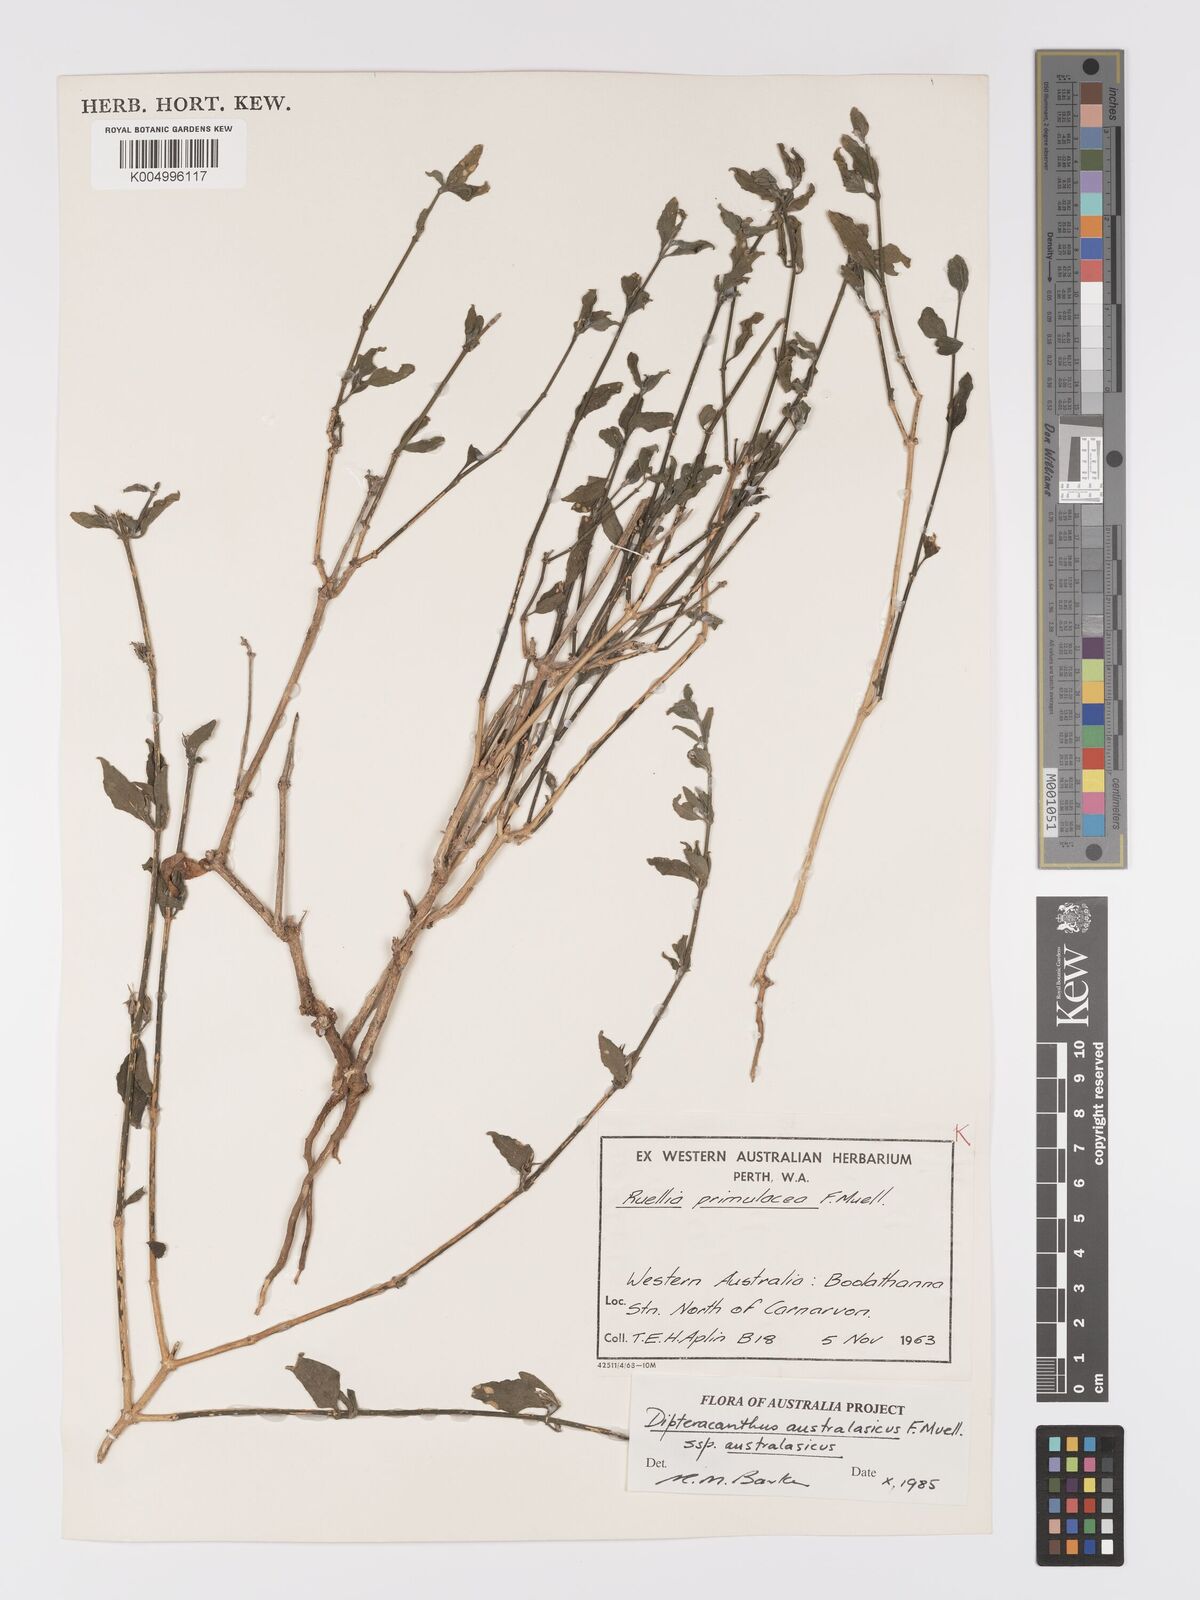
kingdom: Plantae
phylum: Tracheophyta
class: Magnoliopsida
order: Lamiales
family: Acanthaceae
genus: Ruellia
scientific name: Ruellia primulacea
